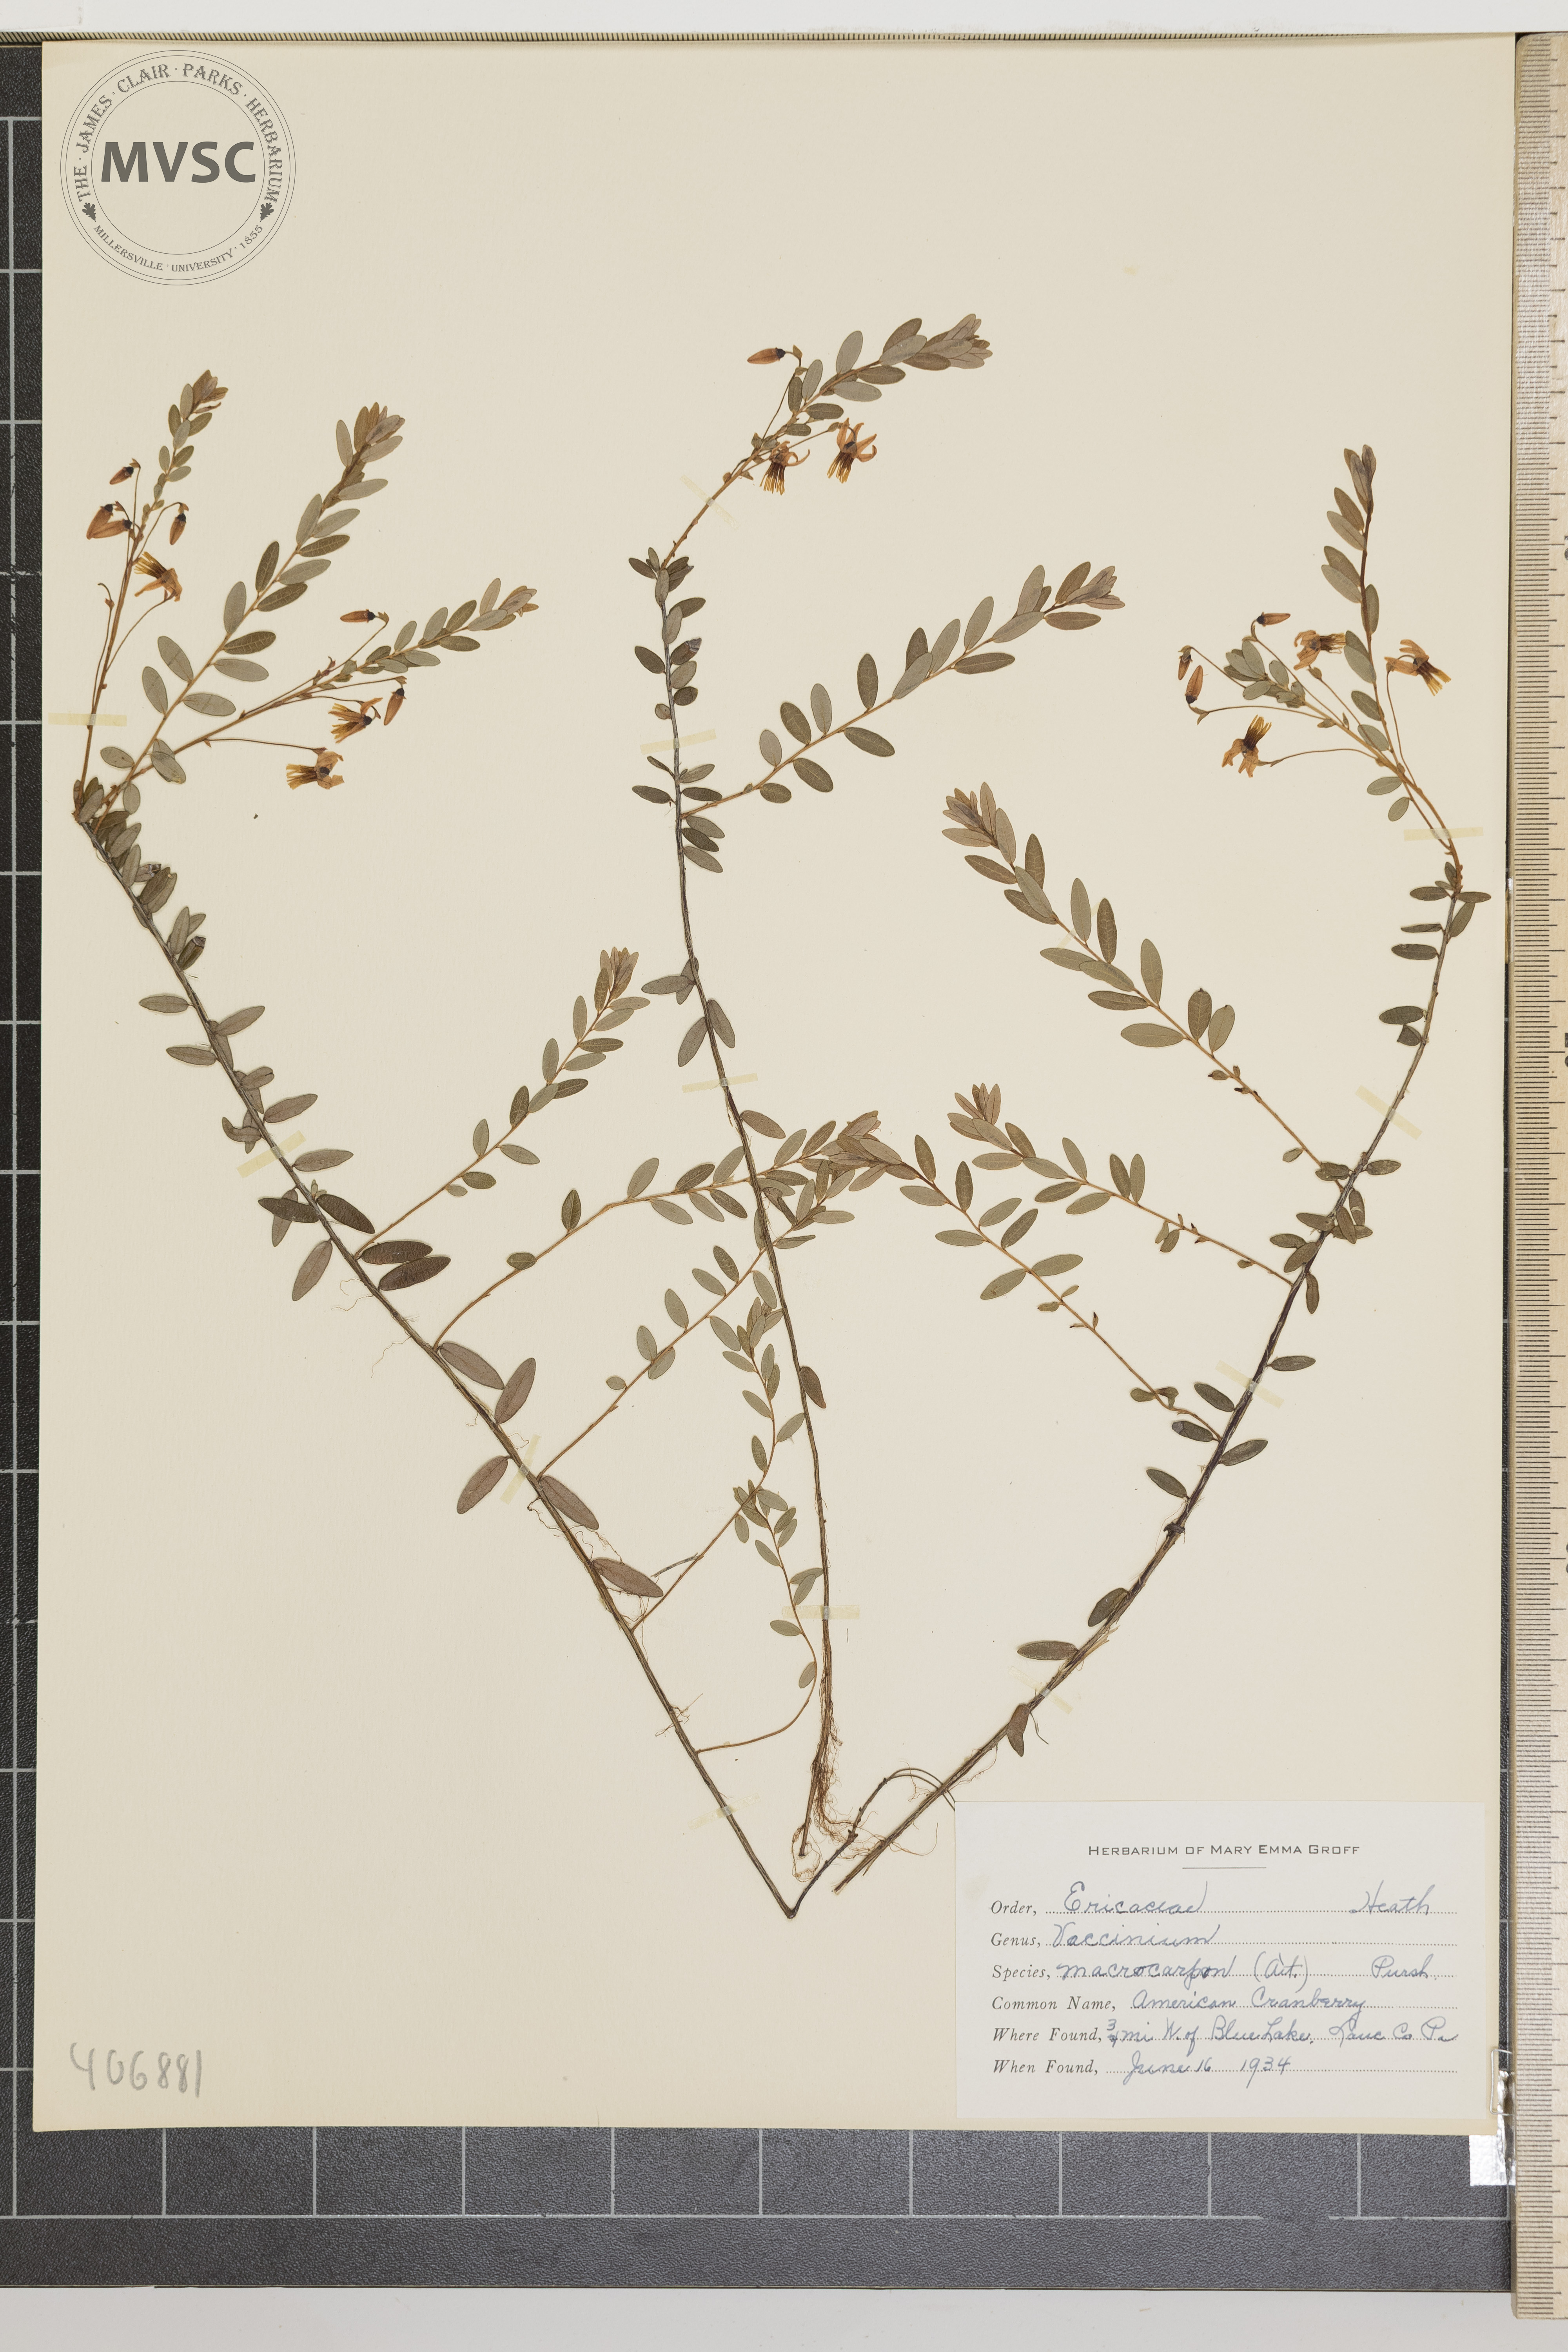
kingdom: Plantae
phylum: Tracheophyta
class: Magnoliopsida
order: Ericales
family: Ericaceae
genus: Vaccinium
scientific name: Vaccinium macrocarpon
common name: American Cranberry
